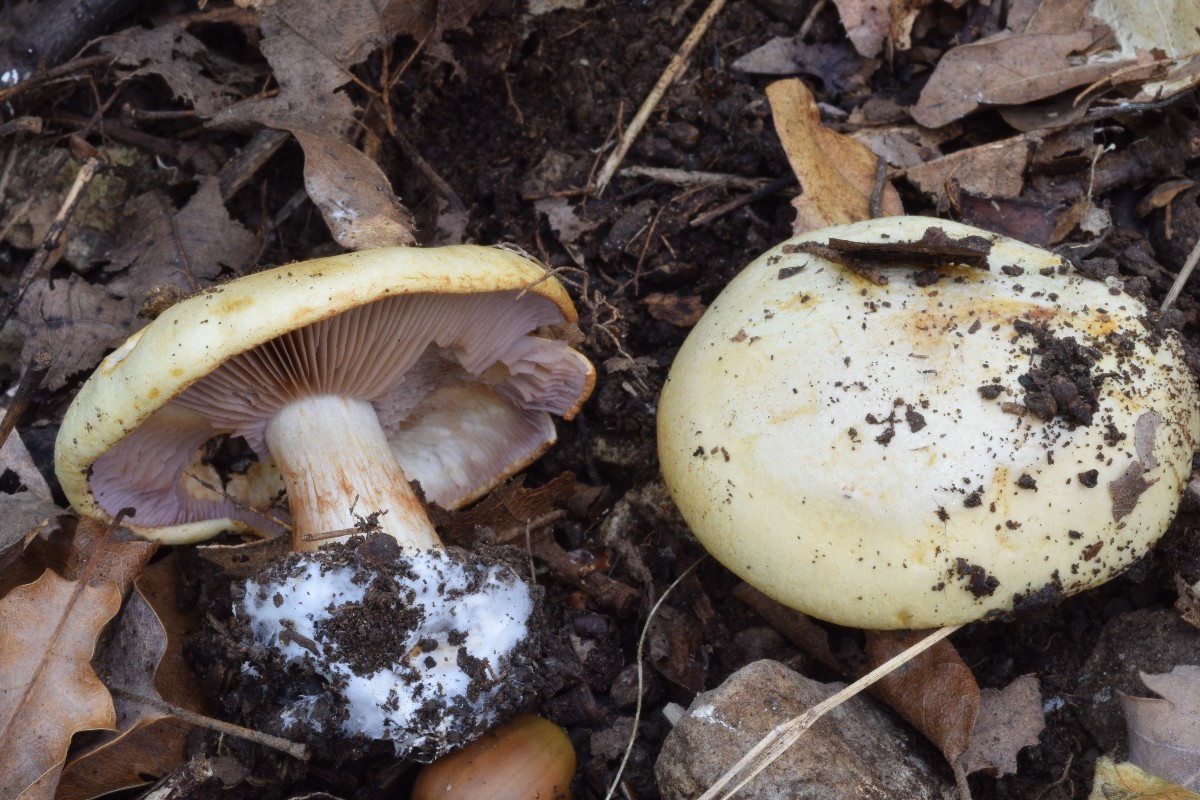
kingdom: Fungi
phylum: Basidiomycota
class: Agaricomycetes
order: Agaricales
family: Cortinariaceae
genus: Calonarius
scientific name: Calonarius flavoaurantians
